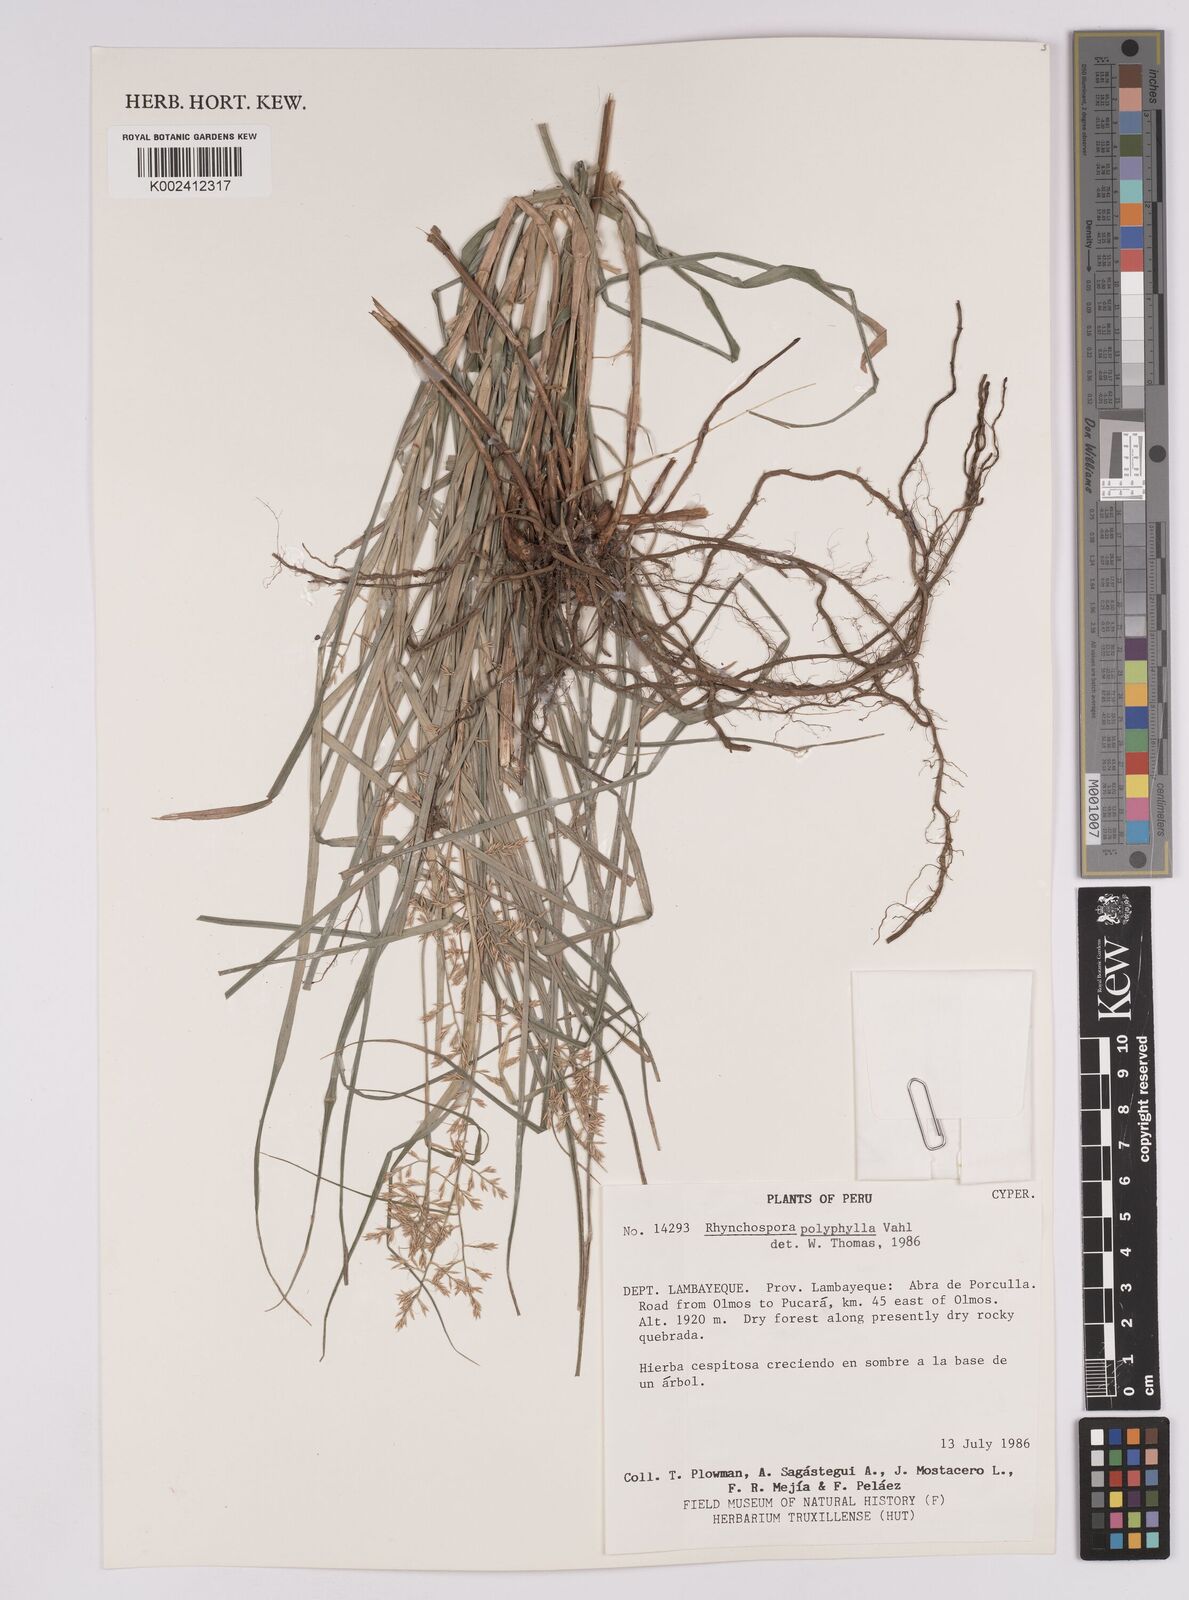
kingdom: Plantae
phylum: Tracheophyta
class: Liliopsida
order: Poales
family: Cyperaceae
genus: Rhynchospora
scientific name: Rhynchospora polyphylla
